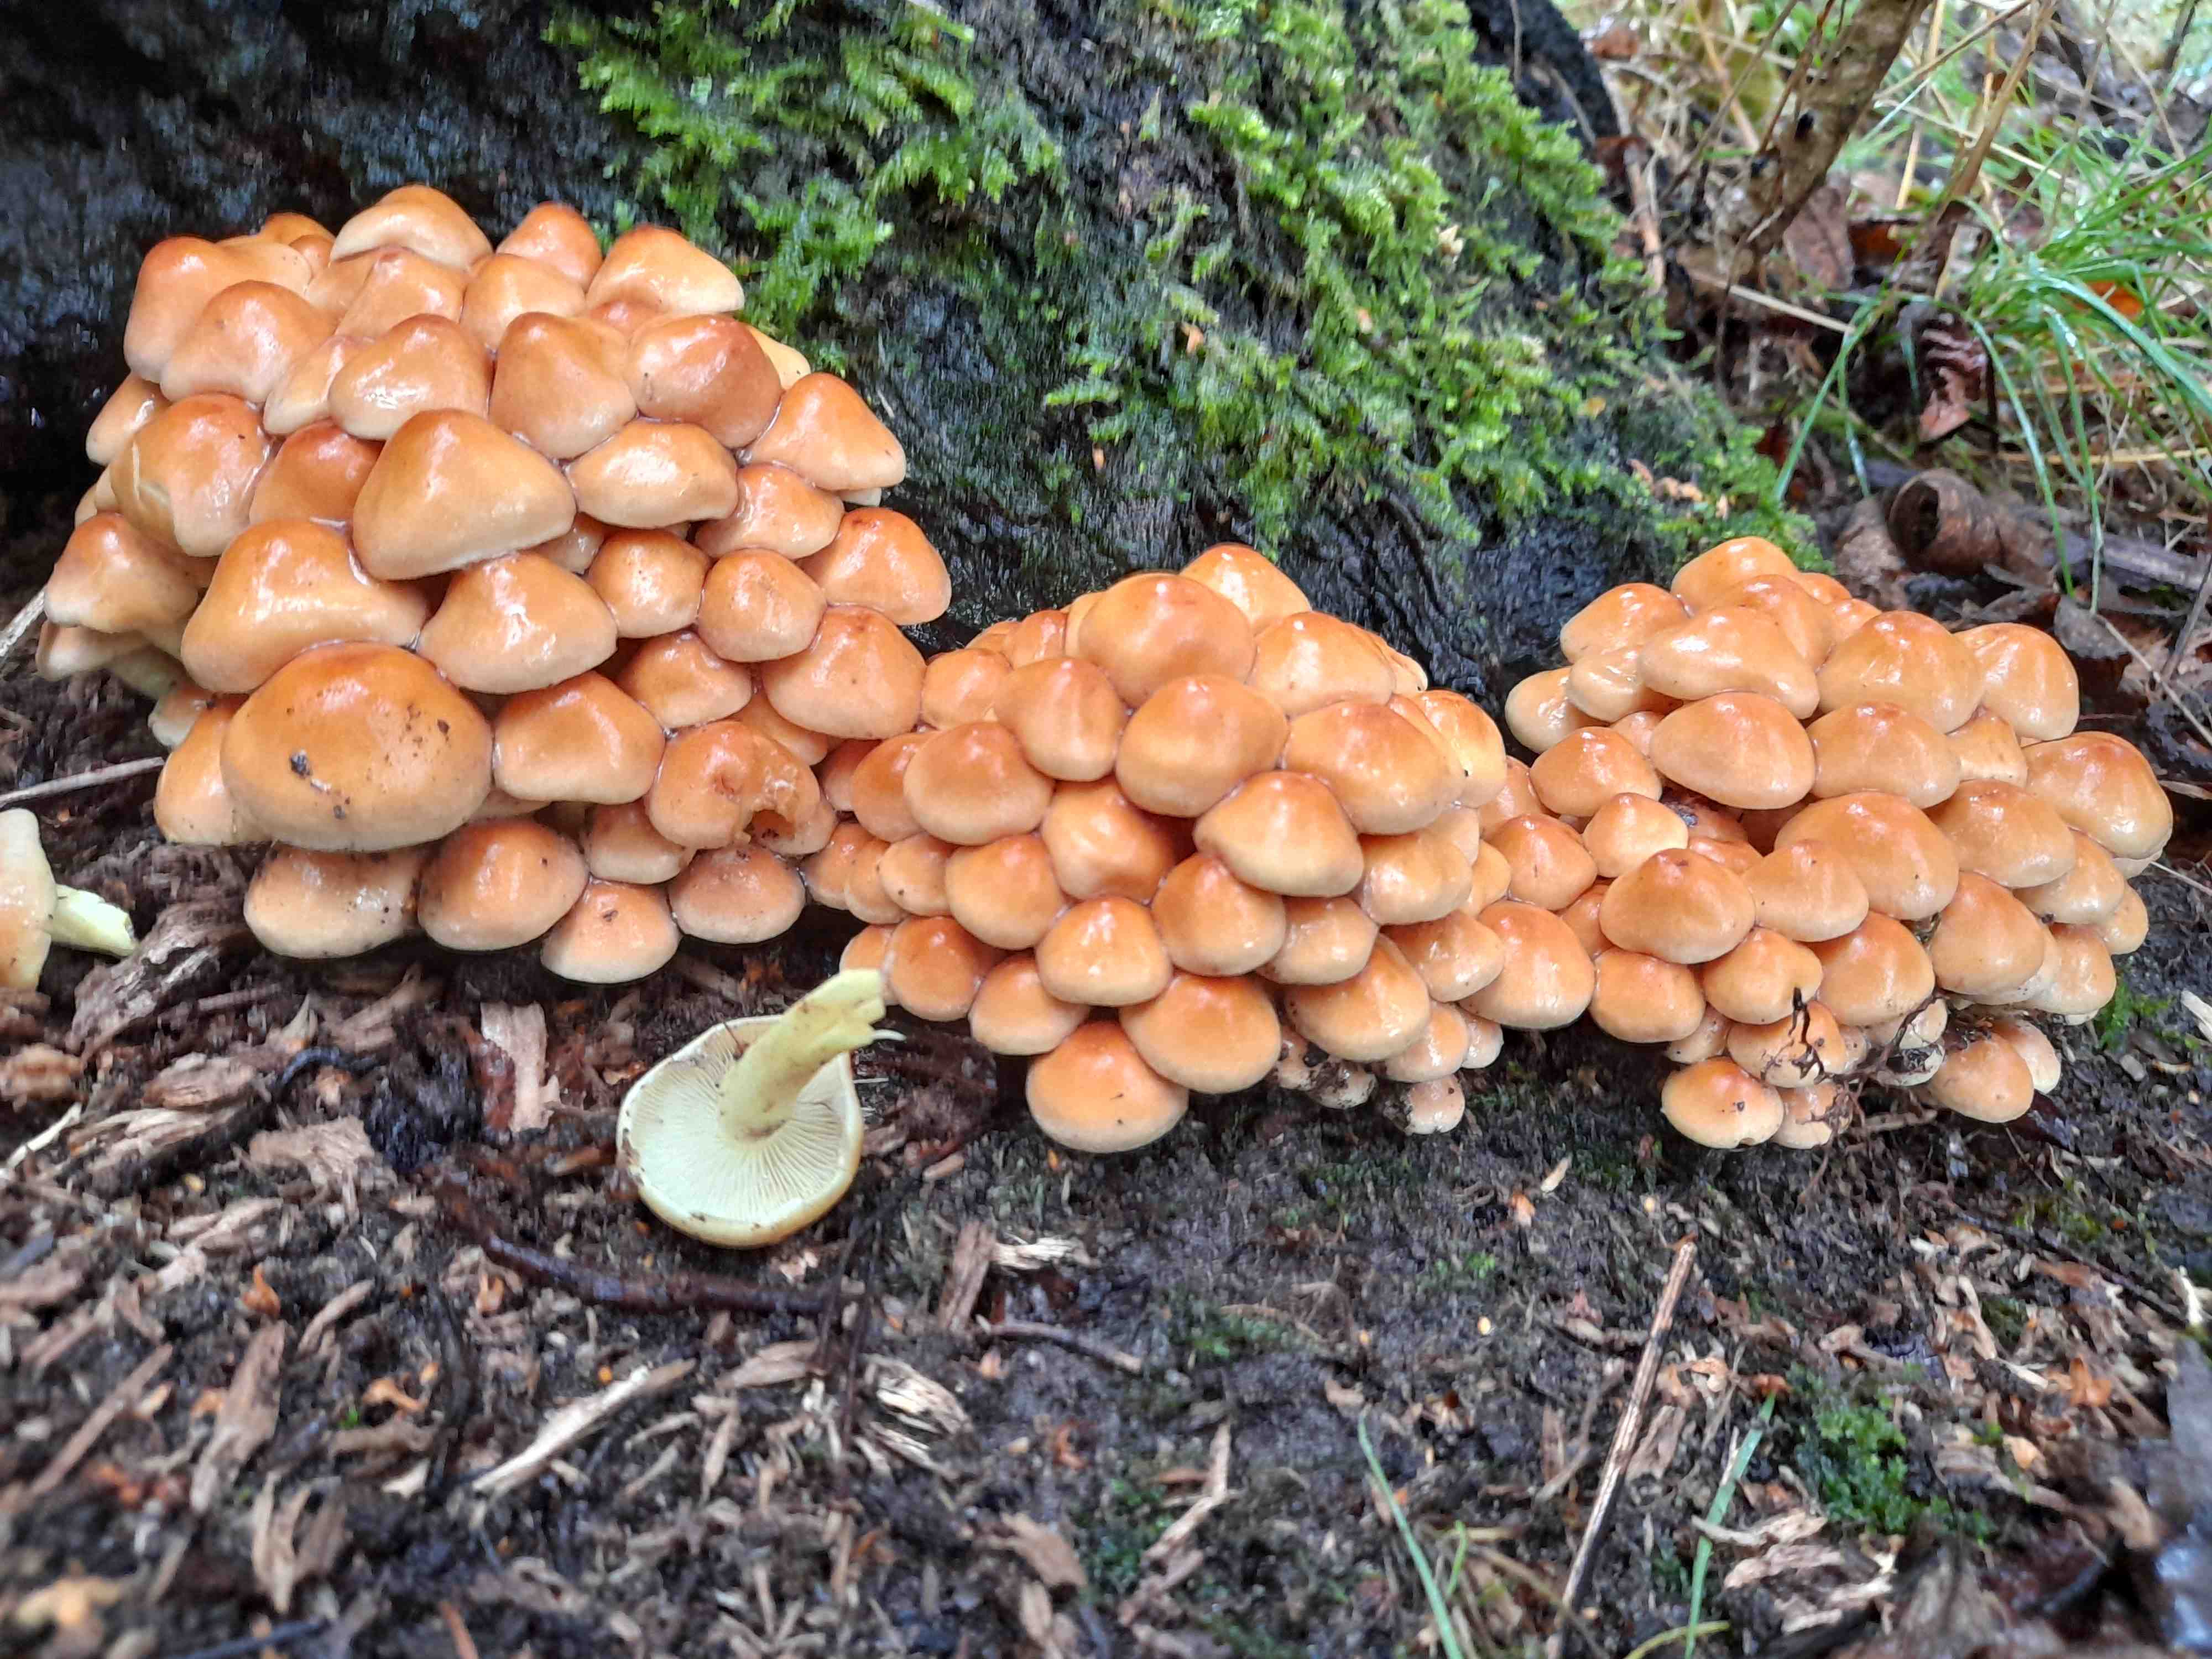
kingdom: Fungi
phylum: Basidiomycota
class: Agaricomycetes
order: Agaricales
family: Strophariaceae
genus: Hypholoma
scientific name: Hypholoma fasciculare
